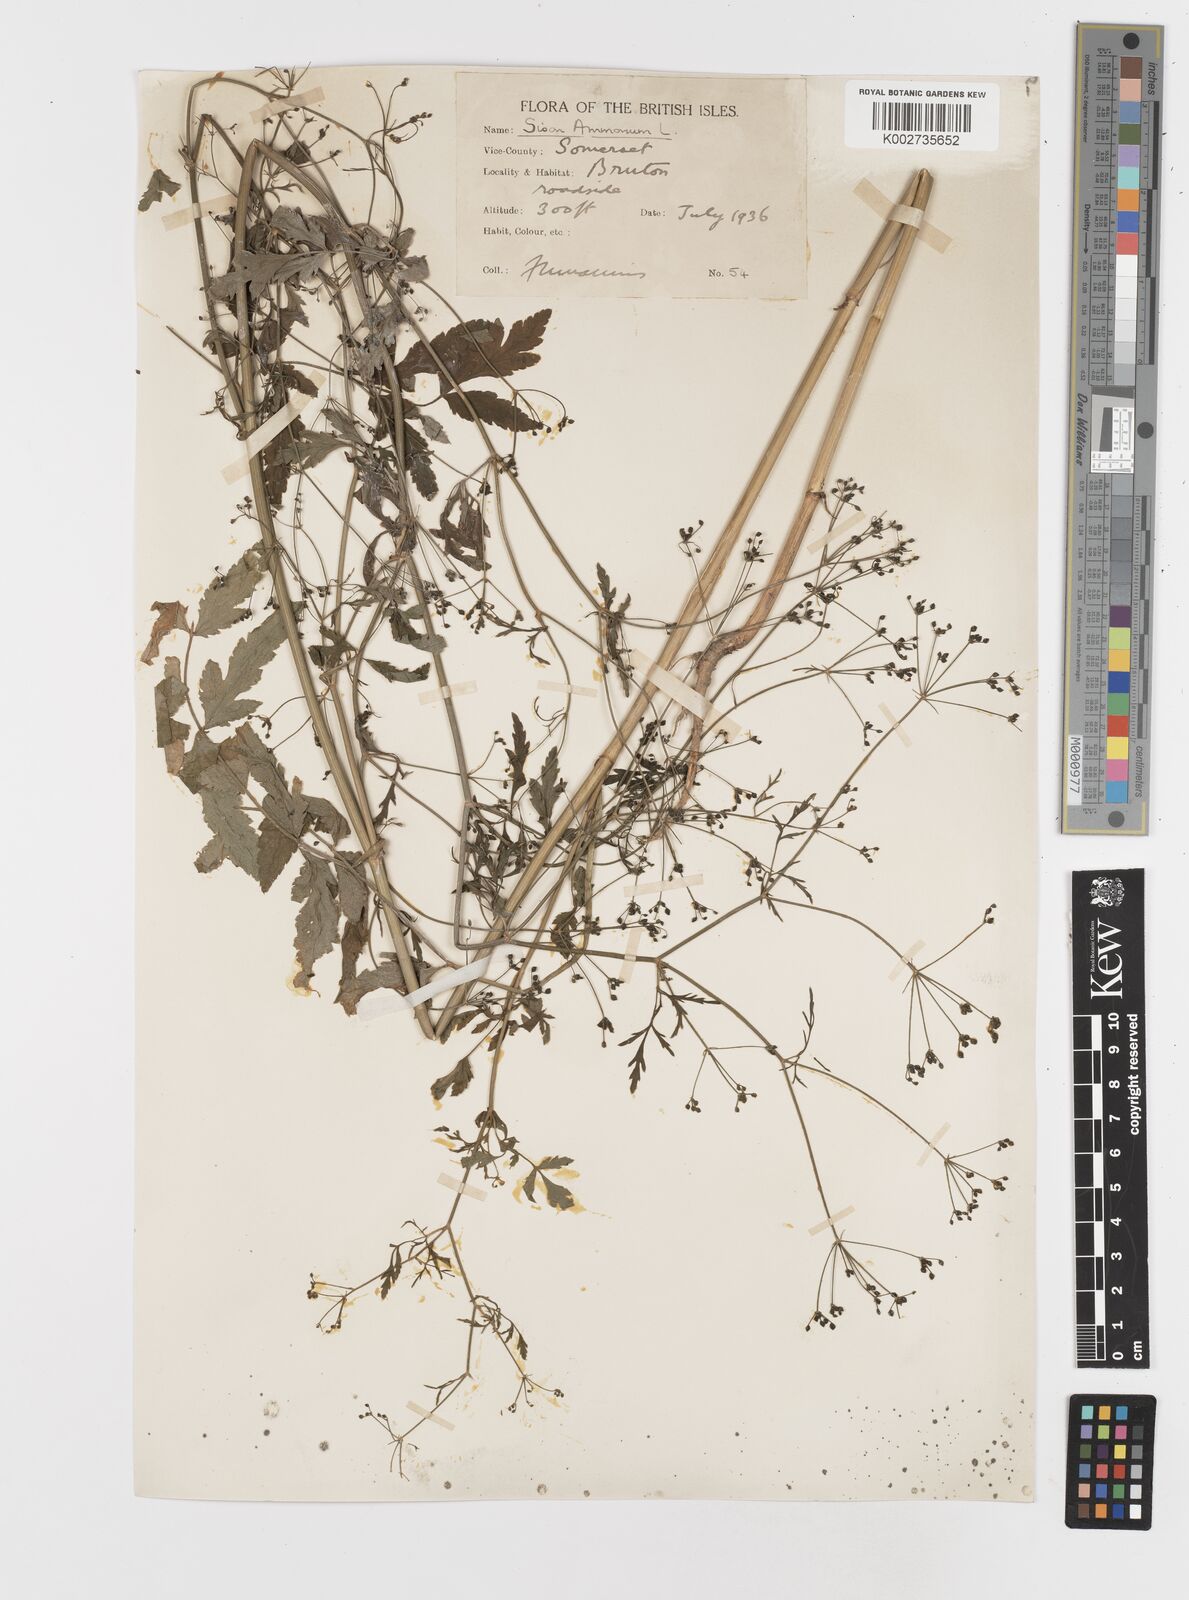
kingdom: Plantae
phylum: Tracheophyta
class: Magnoliopsida
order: Apiales
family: Apiaceae
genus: Sison
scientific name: Sison amomum
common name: Stone-parsley
